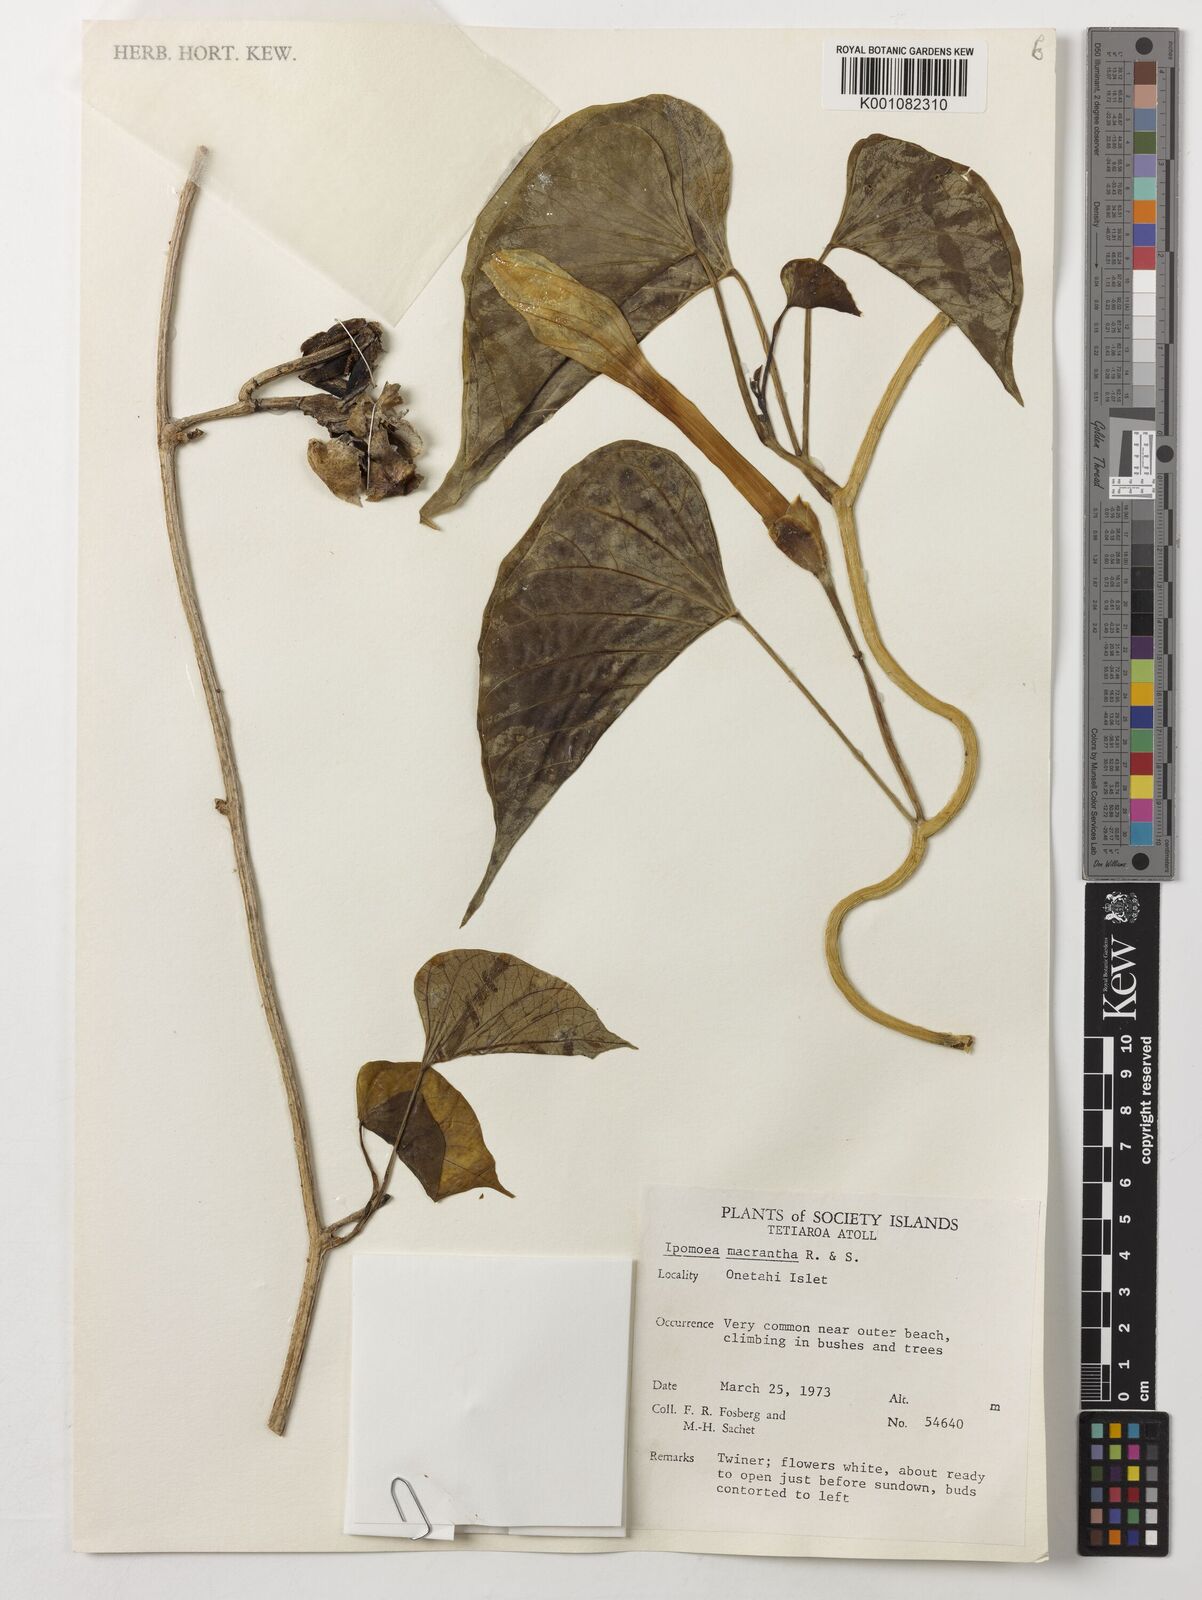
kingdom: Plantae
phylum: Tracheophyta
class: Magnoliopsida
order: Solanales
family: Convolvulaceae
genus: Ipomoea
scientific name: Ipomoea violacea
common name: Beach moonflower
